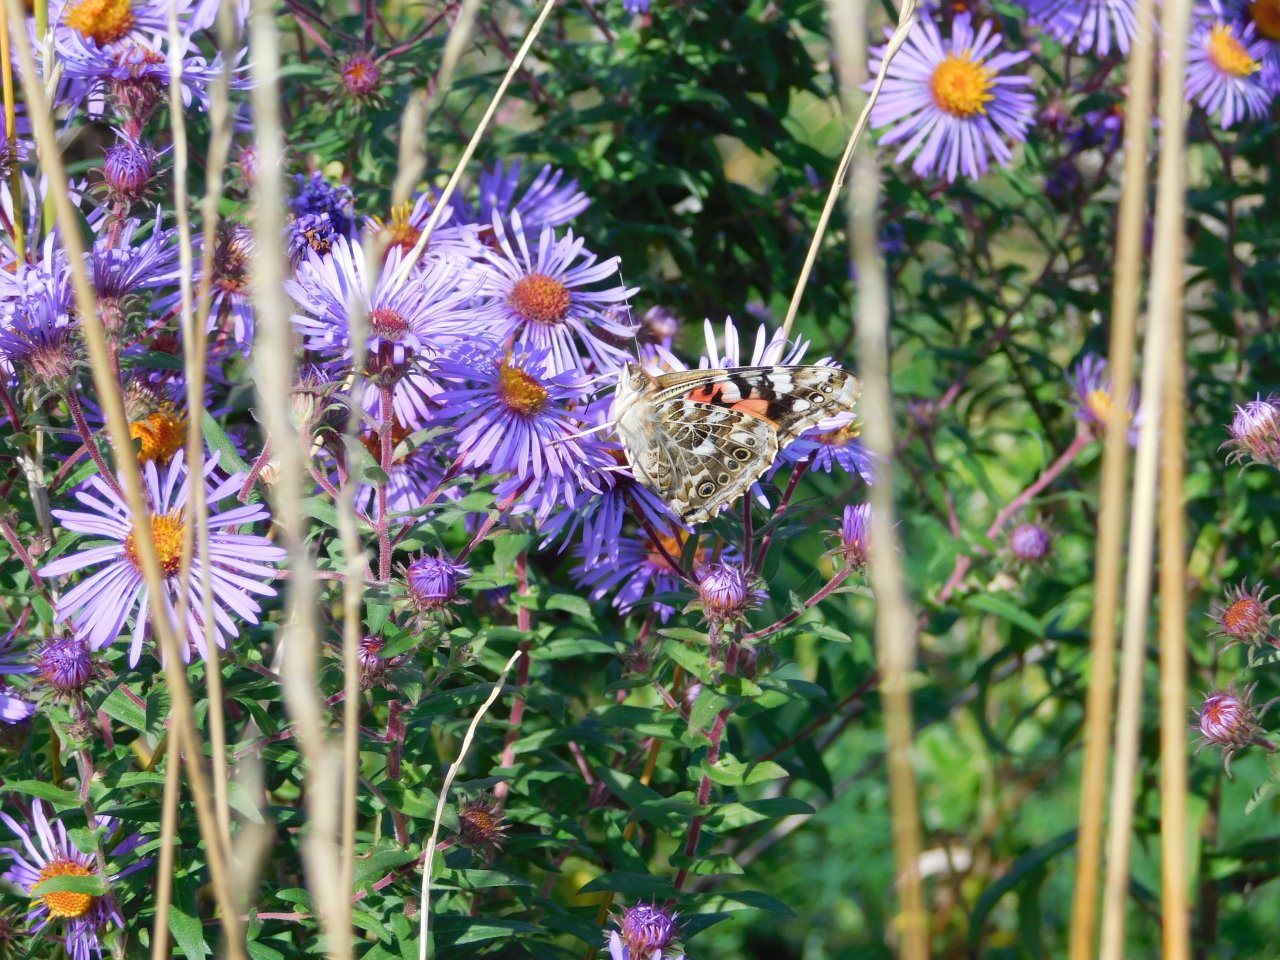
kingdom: Animalia
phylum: Arthropoda
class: Insecta
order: Lepidoptera
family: Nymphalidae
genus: Vanessa
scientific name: Vanessa cardui
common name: Painted Lady
